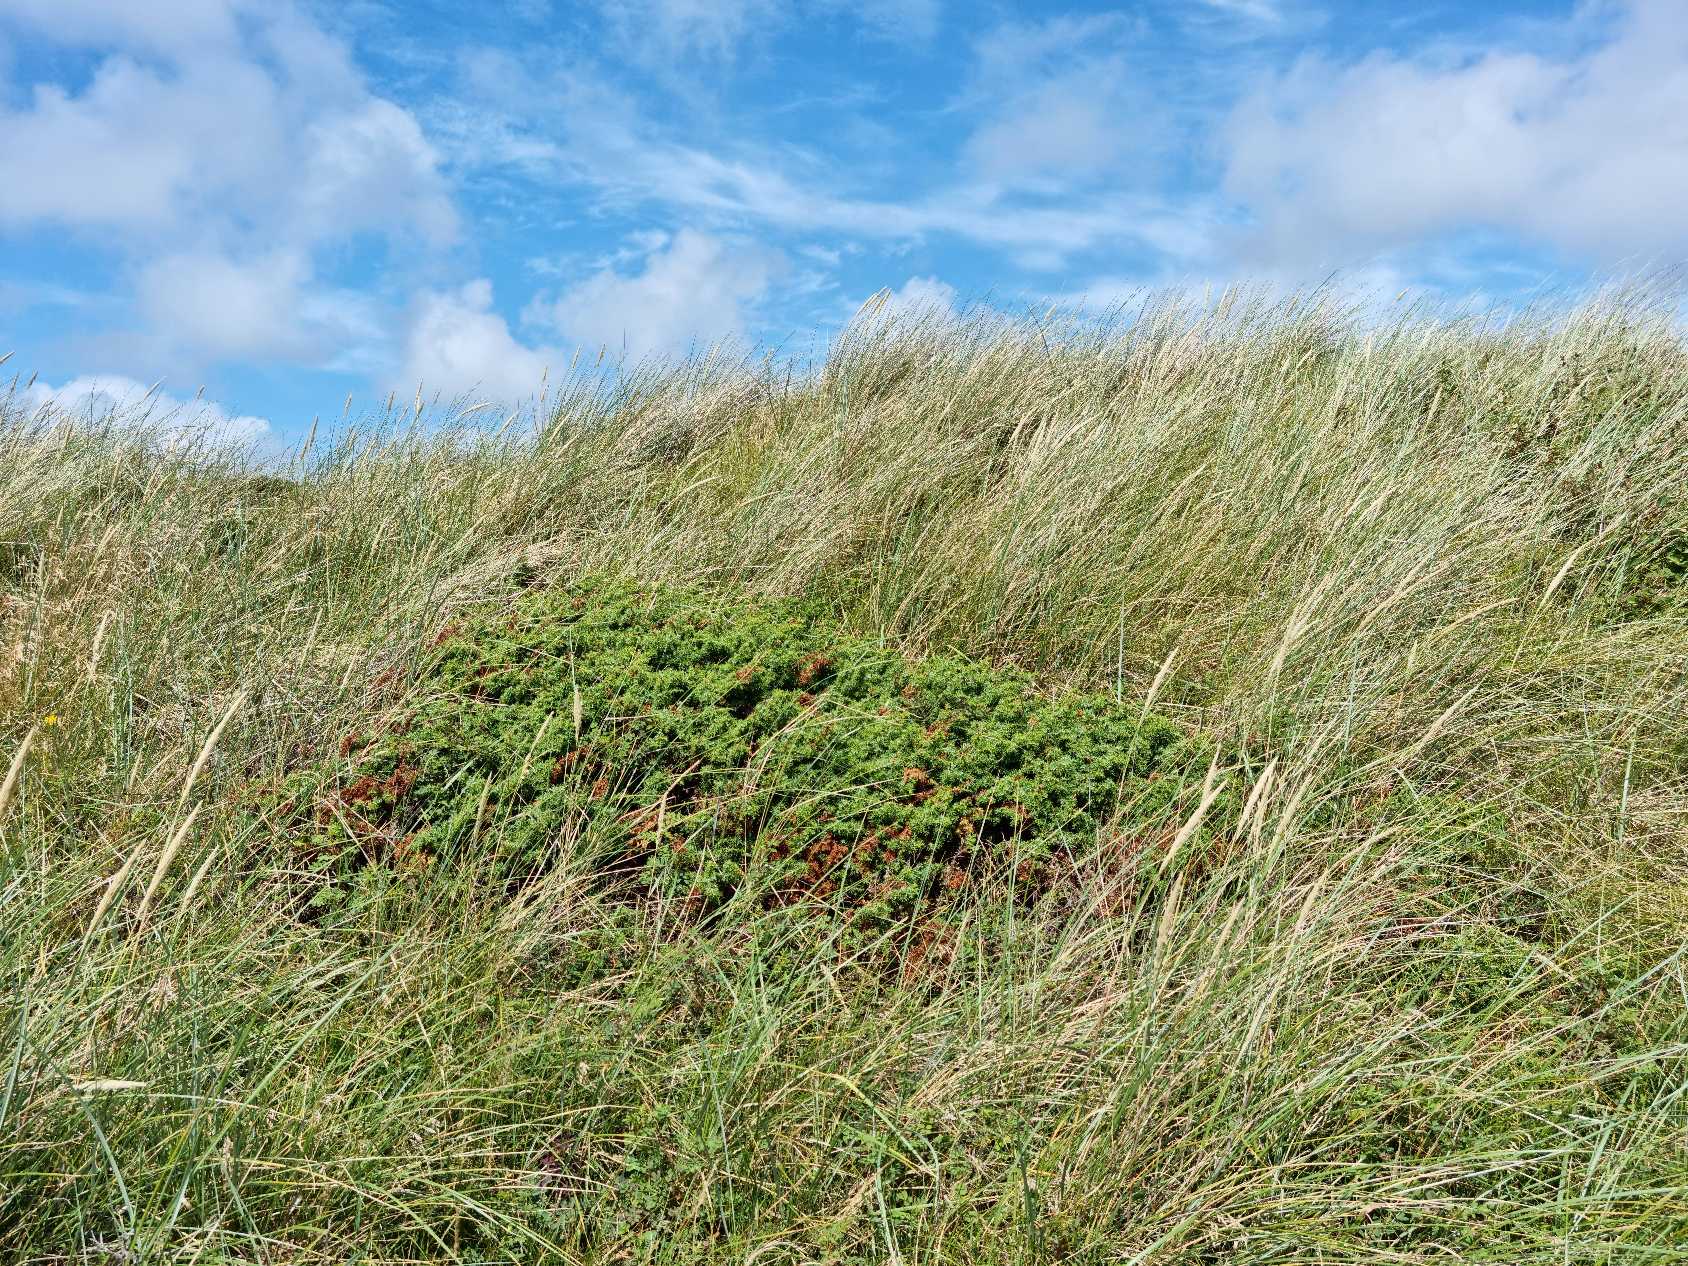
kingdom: Plantae
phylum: Tracheophyta
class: Pinopsida
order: Pinales
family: Cupressaceae
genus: Juniperus
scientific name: Juniperus communis
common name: Almindelig ene
